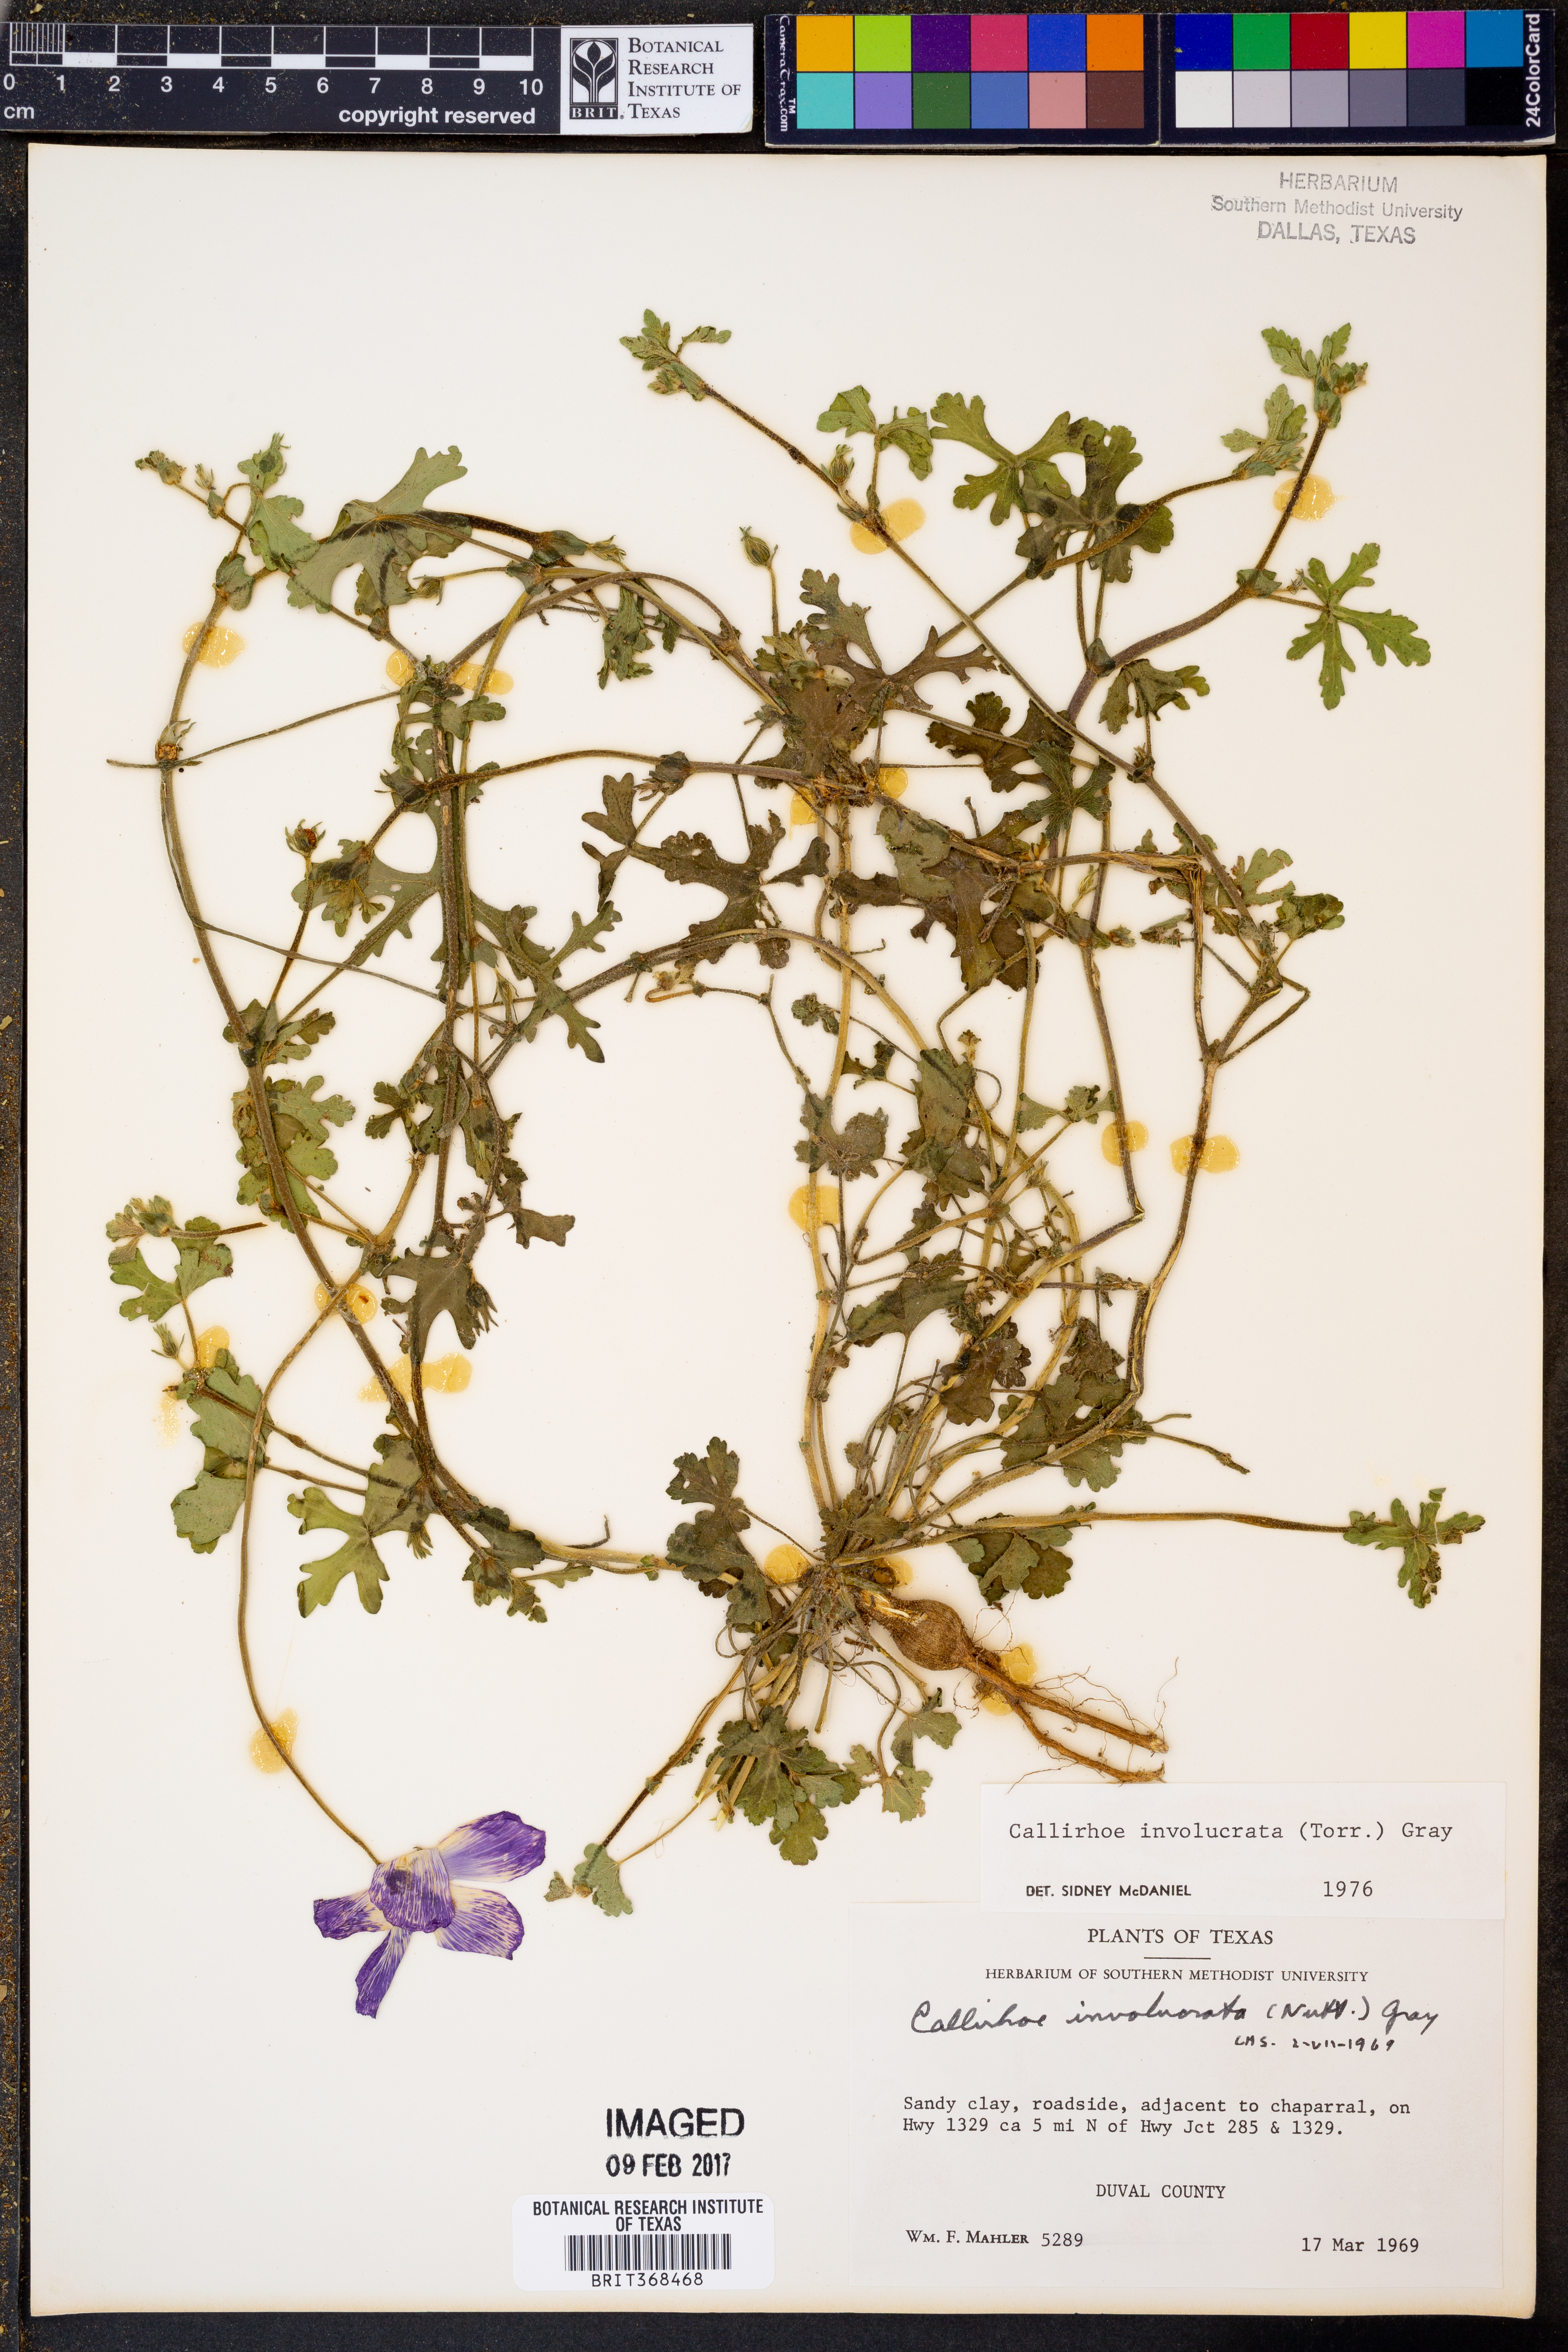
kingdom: Plantae
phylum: Tracheophyta
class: Magnoliopsida
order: Malvales
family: Malvaceae
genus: Callirhoe
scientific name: Callirhoe involucrata
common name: Purple poppy-mallow
